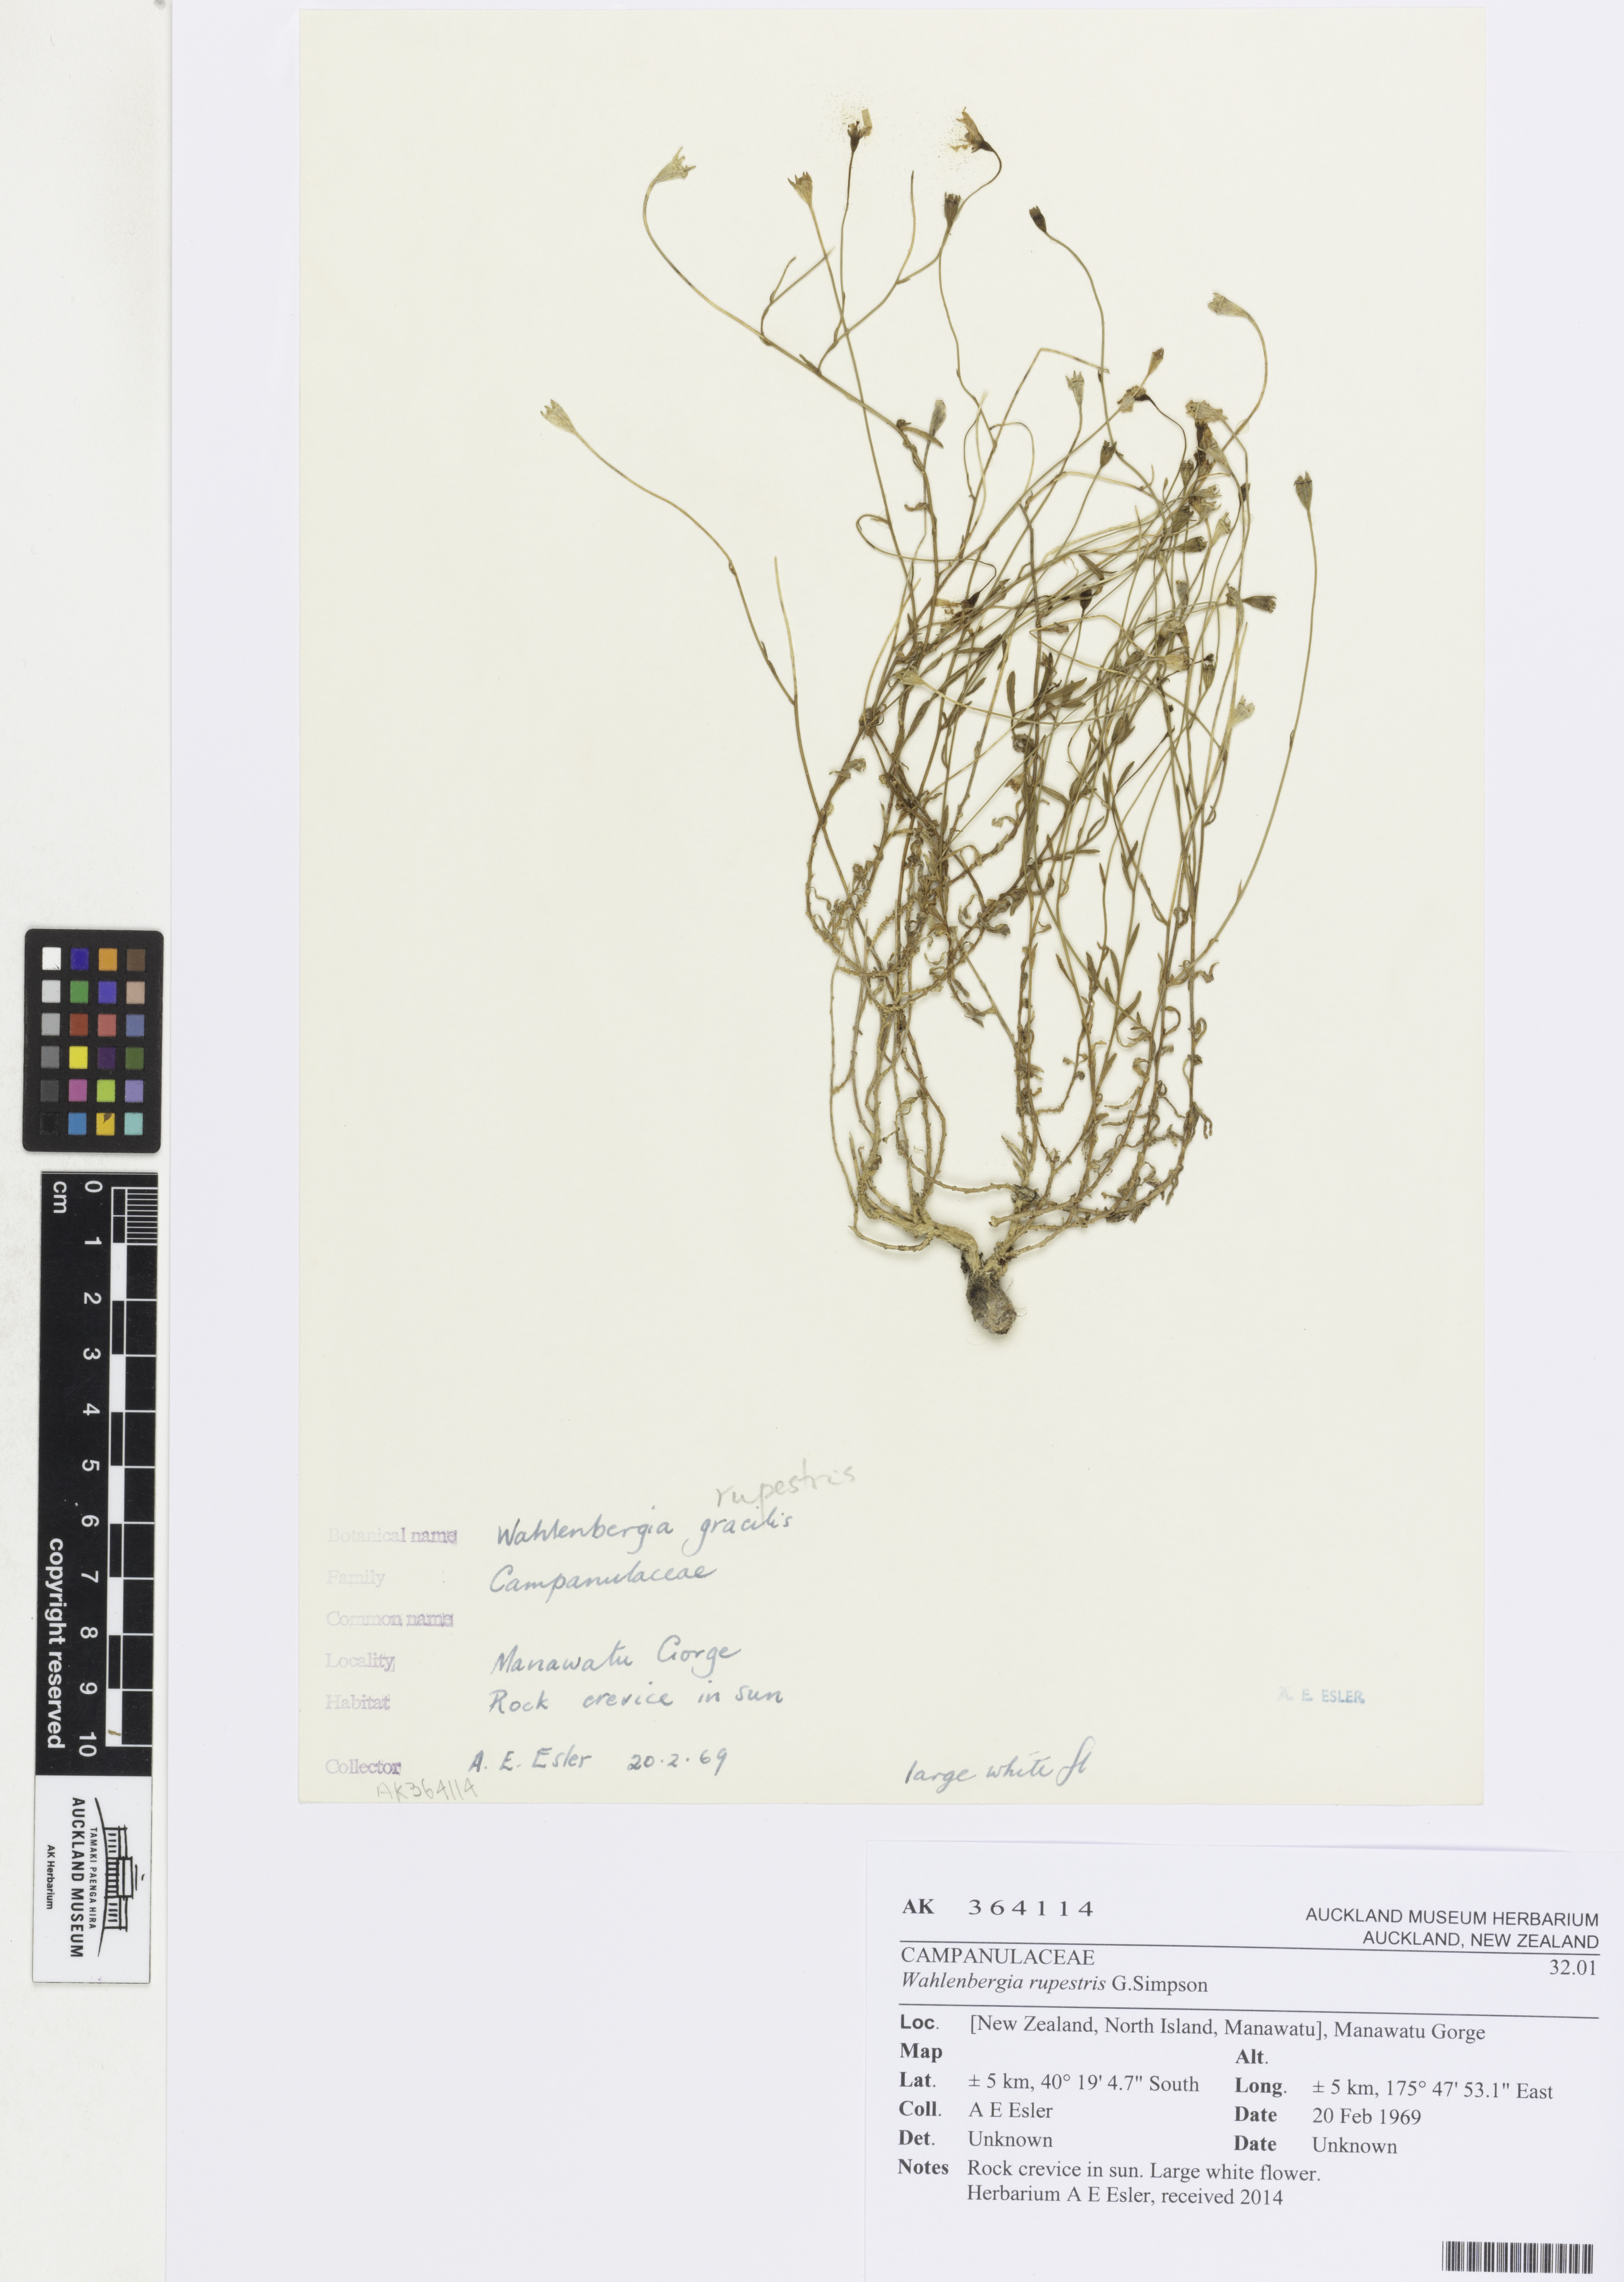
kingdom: Plantae
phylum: Tracheophyta
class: Magnoliopsida
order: Asterales
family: Campanulaceae
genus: Wahlenbergia
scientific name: Wahlenbergia rupestris
